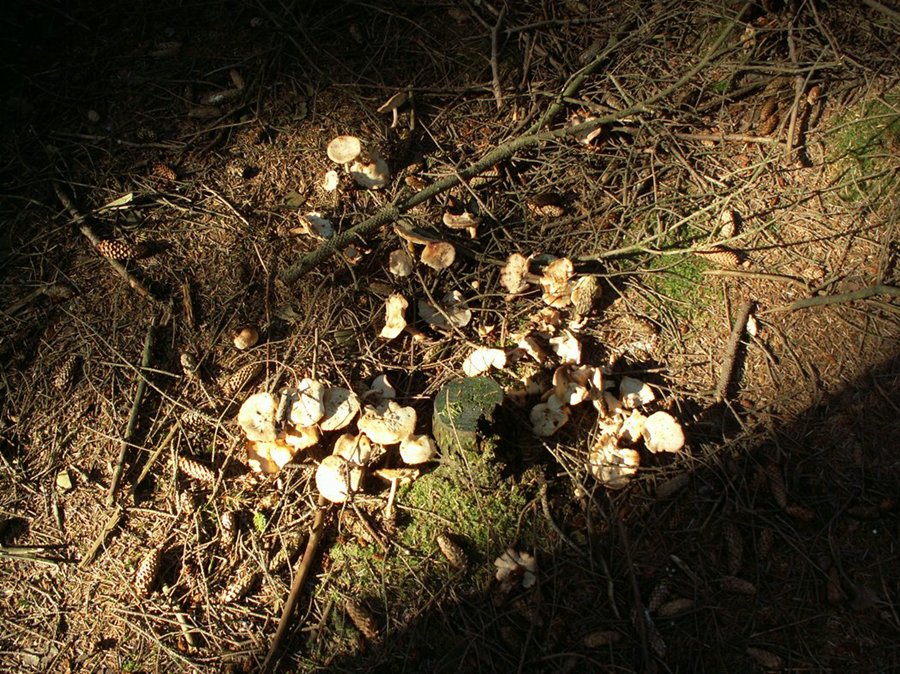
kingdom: Fungi
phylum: Basidiomycota
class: Agaricomycetes
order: Agaricales
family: Omphalotaceae
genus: Rhodocollybia
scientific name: Rhodocollybia maculata
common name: plettet fladhat
